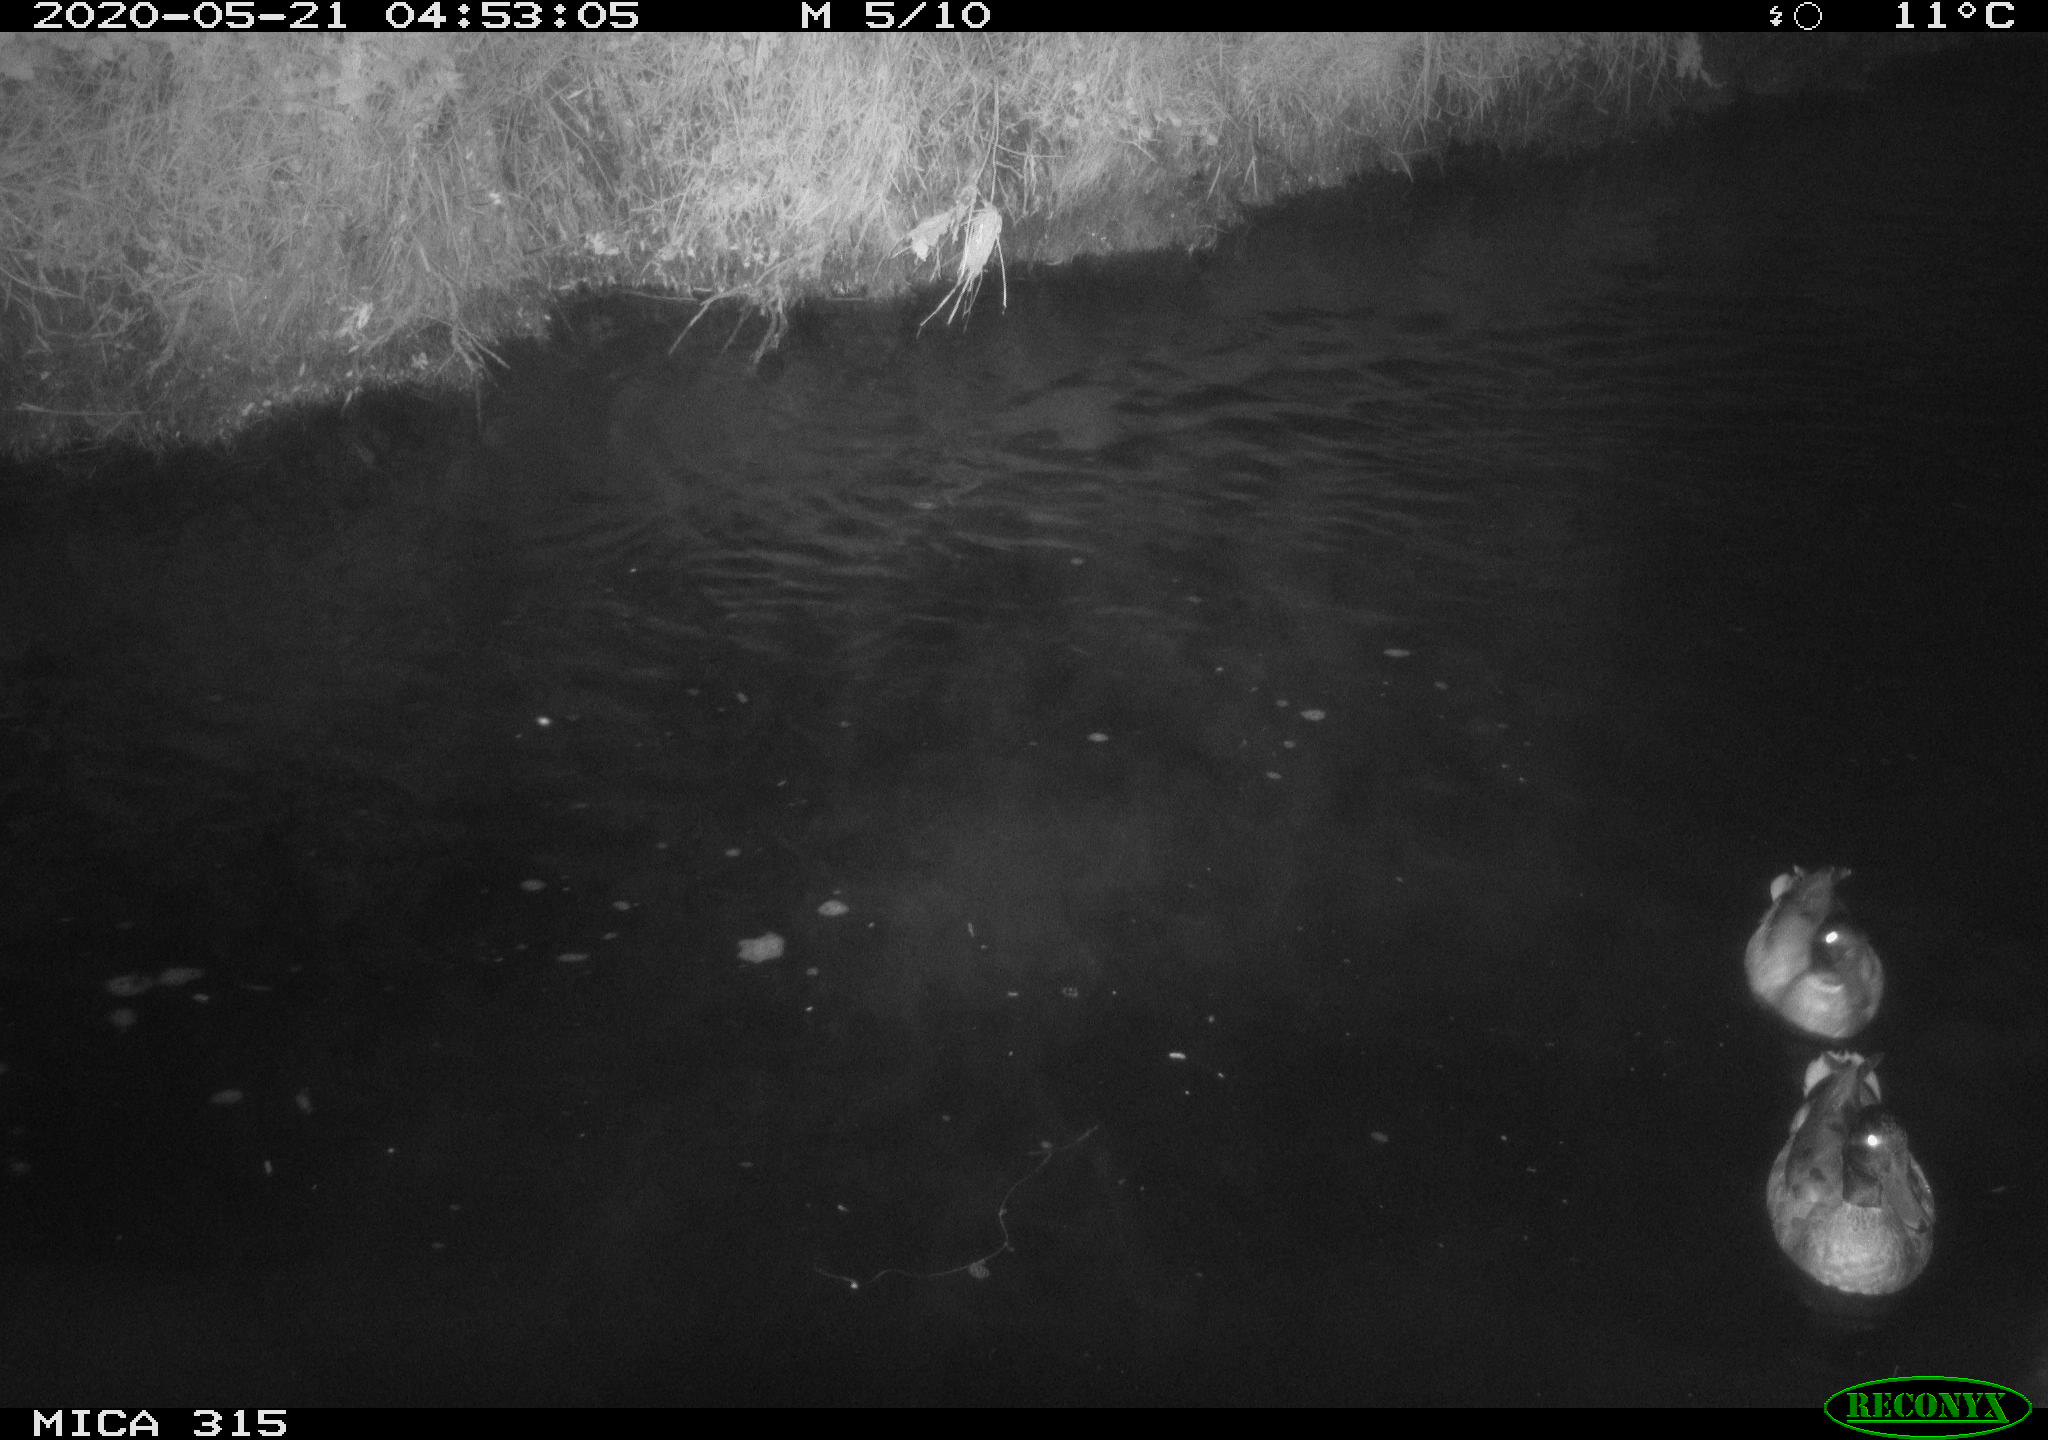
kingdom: Animalia
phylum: Chordata
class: Aves
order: Pelecaniformes
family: Ardeidae
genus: Ardea
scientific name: Ardea cinerea
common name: Grey heron
